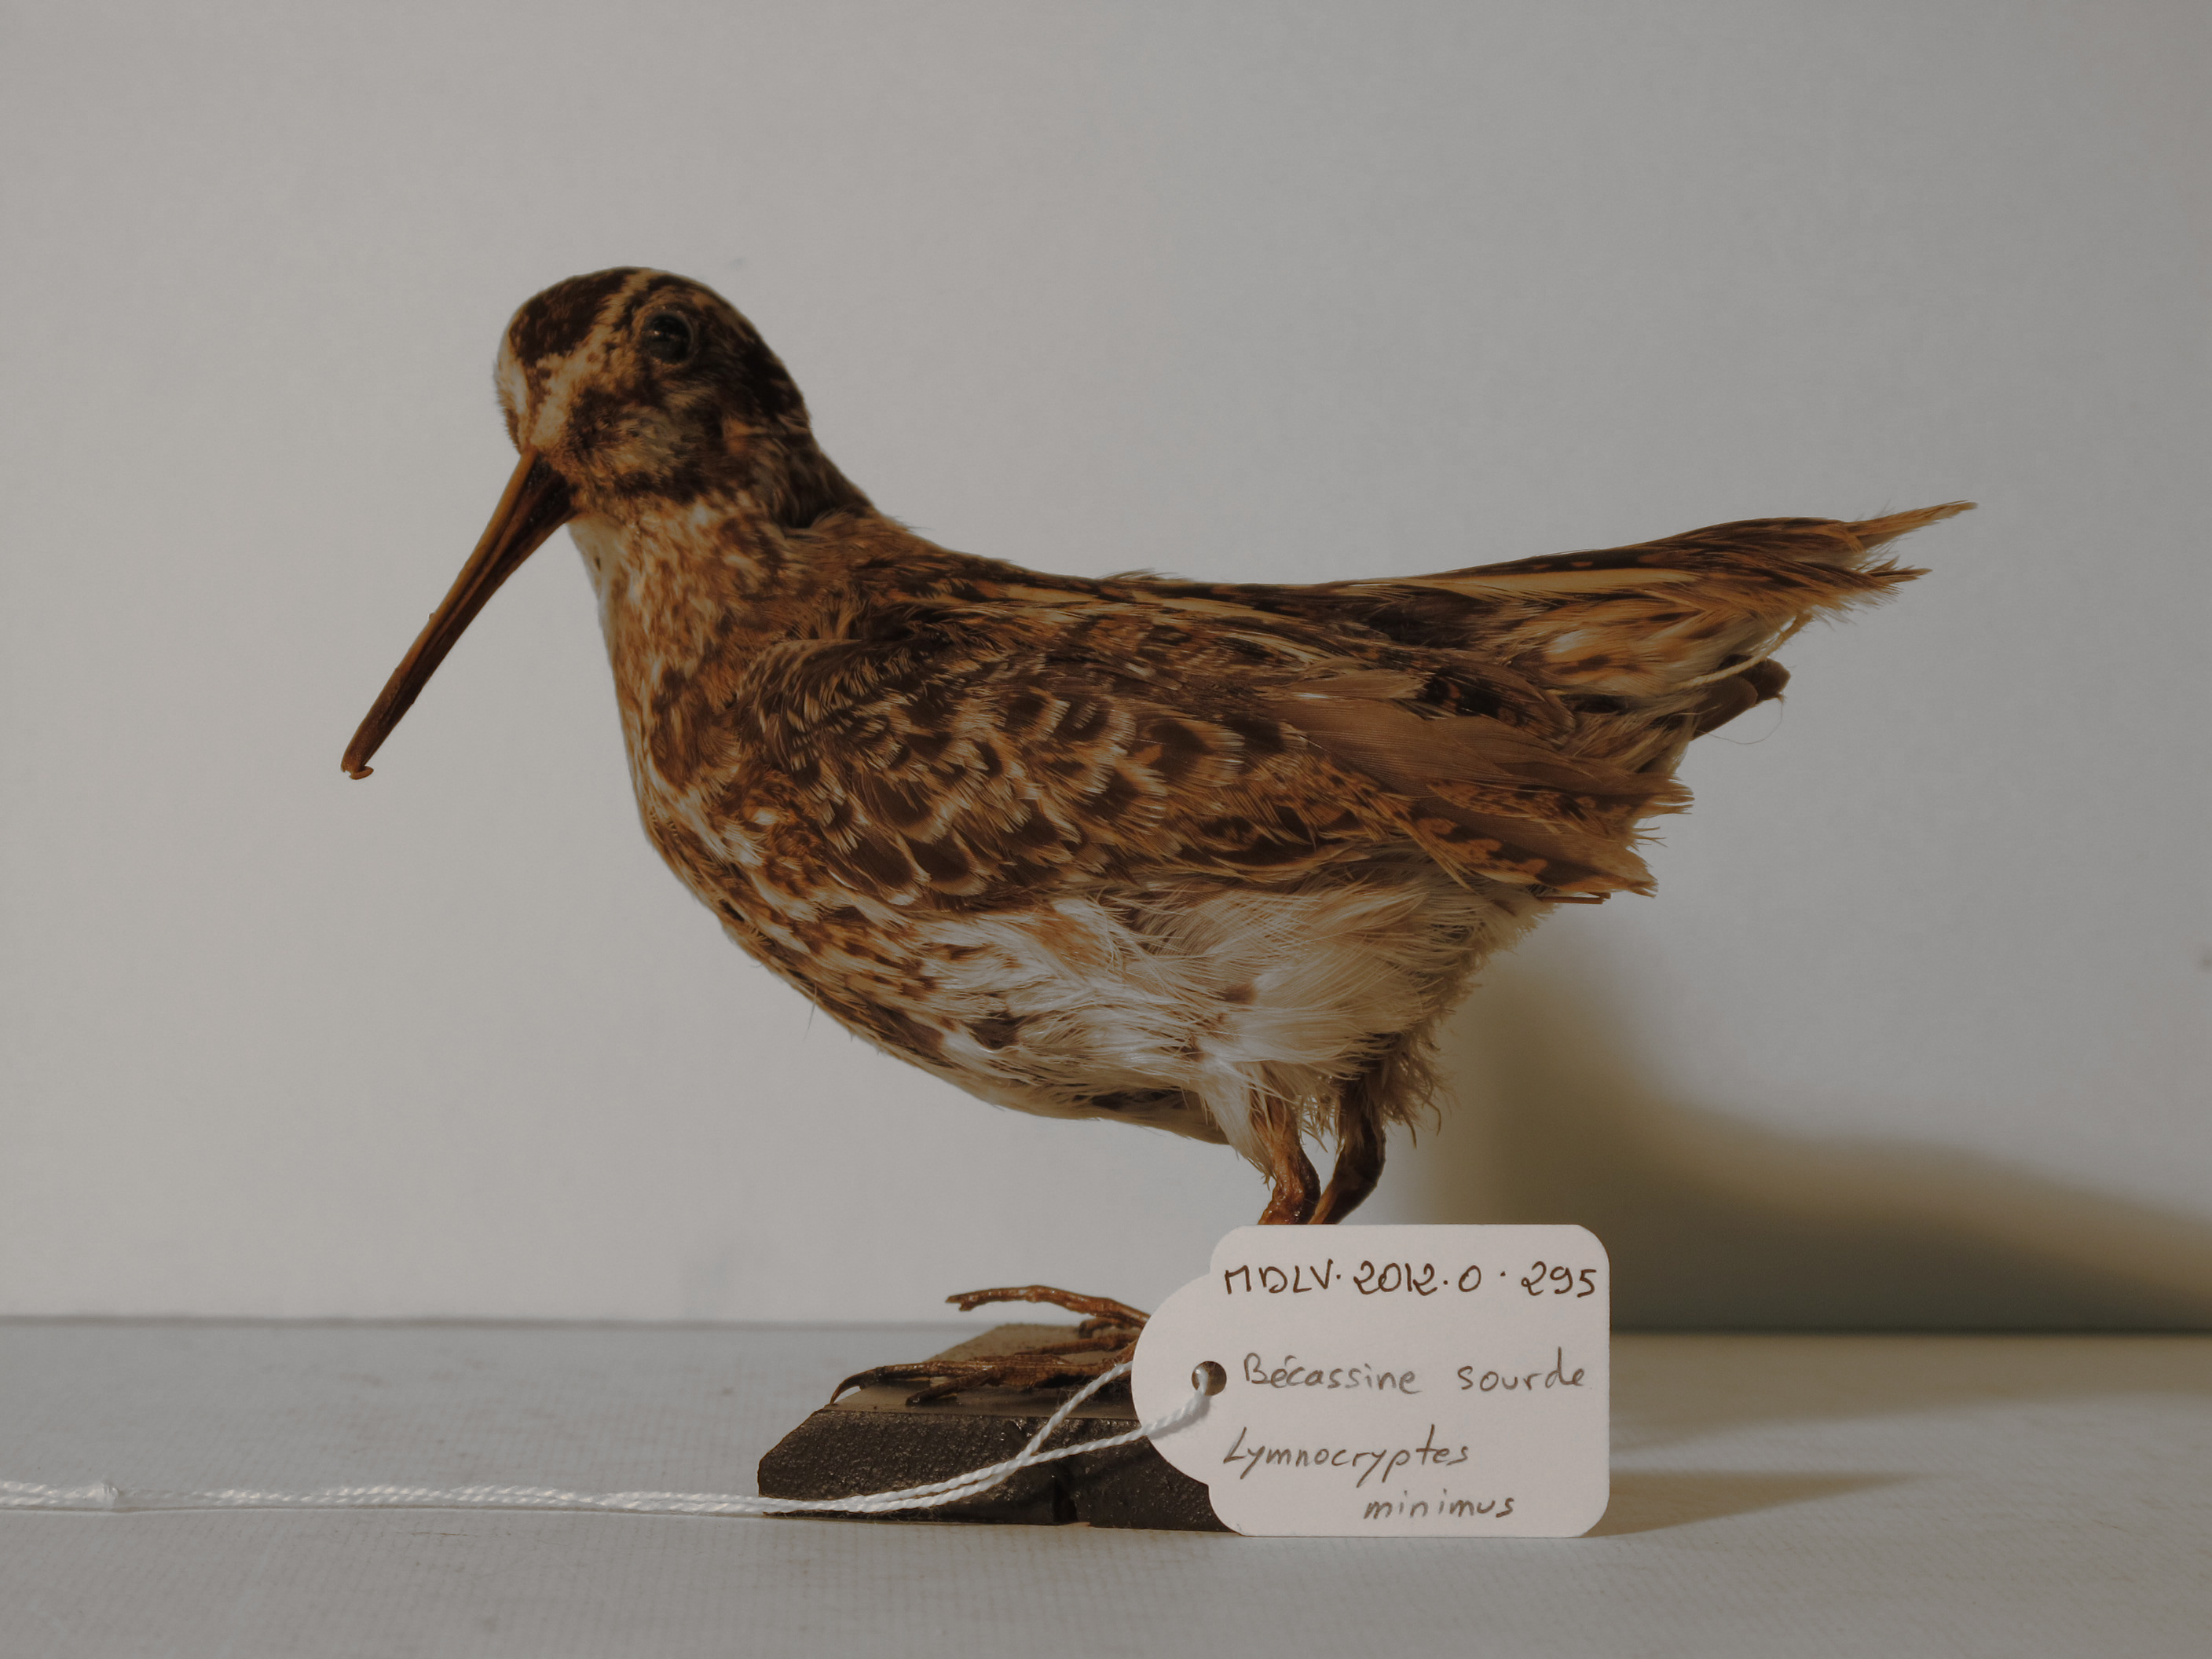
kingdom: Animalia
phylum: Chordata
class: Aves
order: Charadriiformes
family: Scolopacidae
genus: Lymnocryptes
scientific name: Lymnocryptes minimus
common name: Jack Snipe
